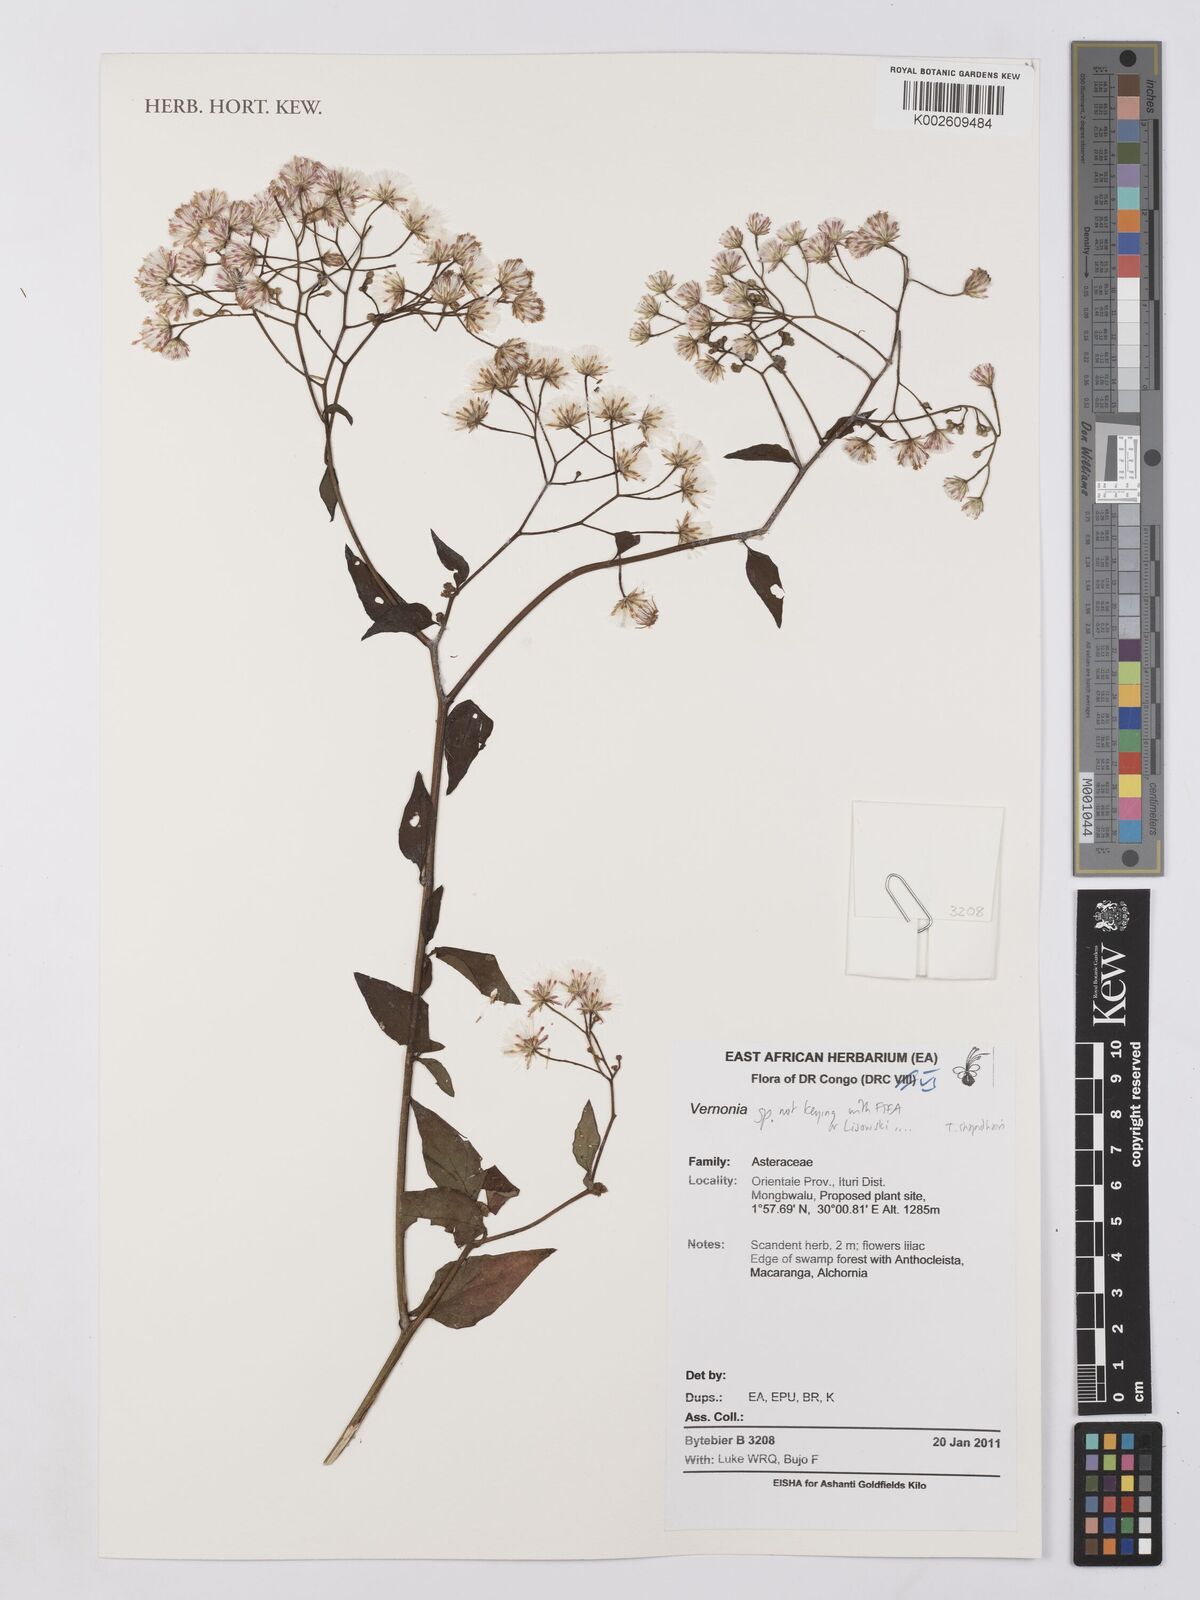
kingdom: Plantae
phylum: Tracheophyta
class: Magnoliopsida
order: Asterales
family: Asteraceae
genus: Vernonia
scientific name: Vernonia
